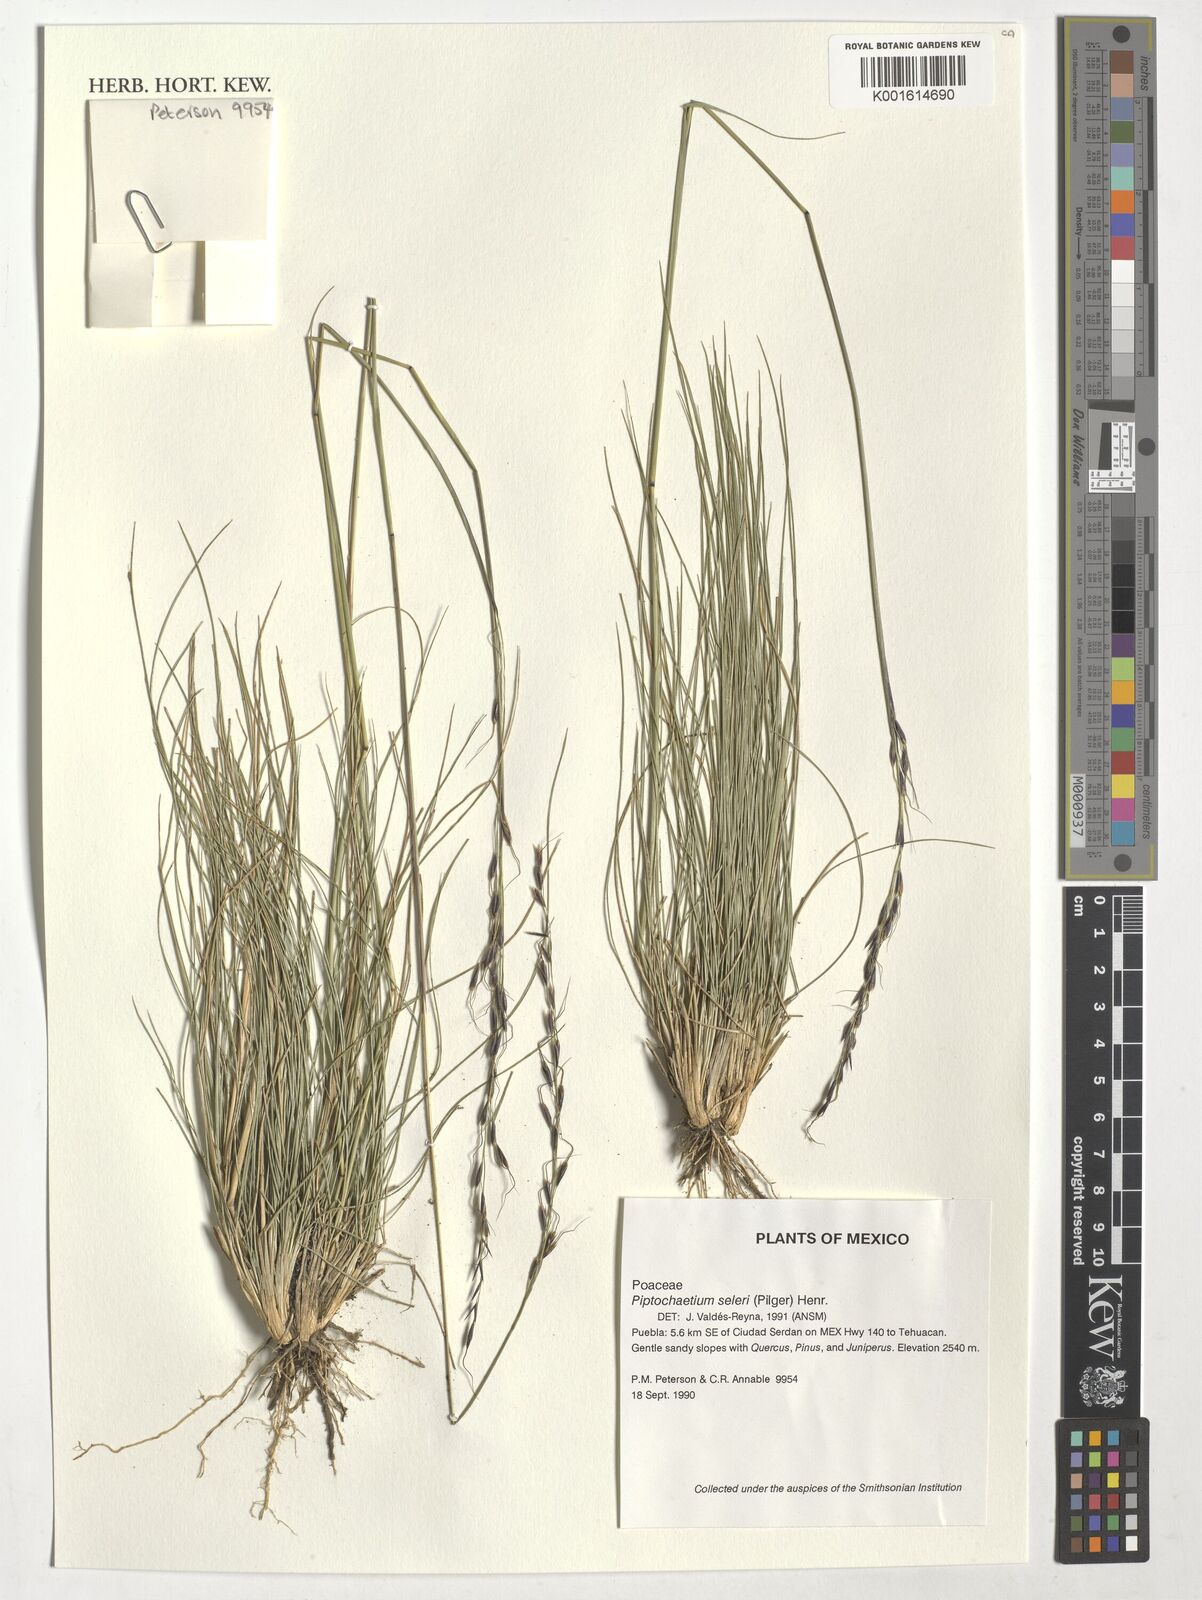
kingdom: Plantae
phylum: Tracheophyta
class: Liliopsida
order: Poales
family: Poaceae
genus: Piptochaetium
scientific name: Piptochaetium seleri
